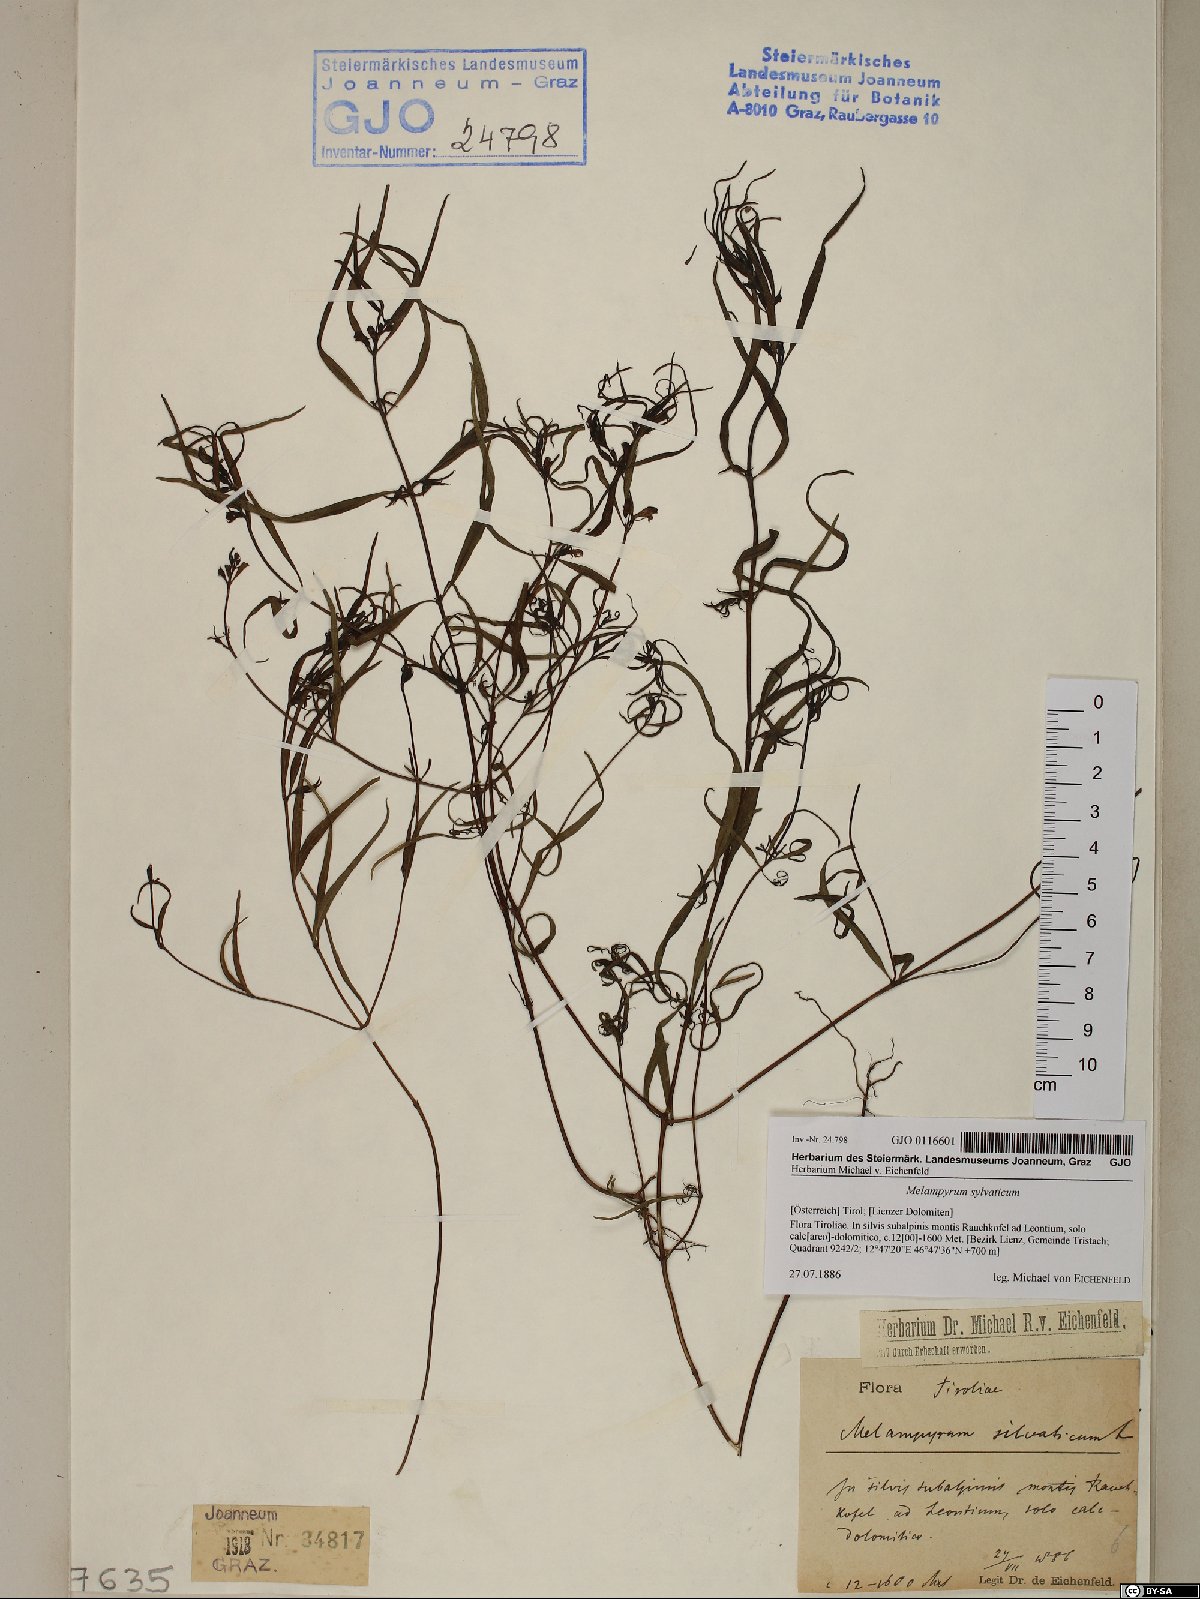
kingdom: Plantae
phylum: Tracheophyta
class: Magnoliopsida
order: Lamiales
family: Orobanchaceae
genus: Melampyrum
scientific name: Melampyrum sylvaticum
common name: Small cow-wheat
